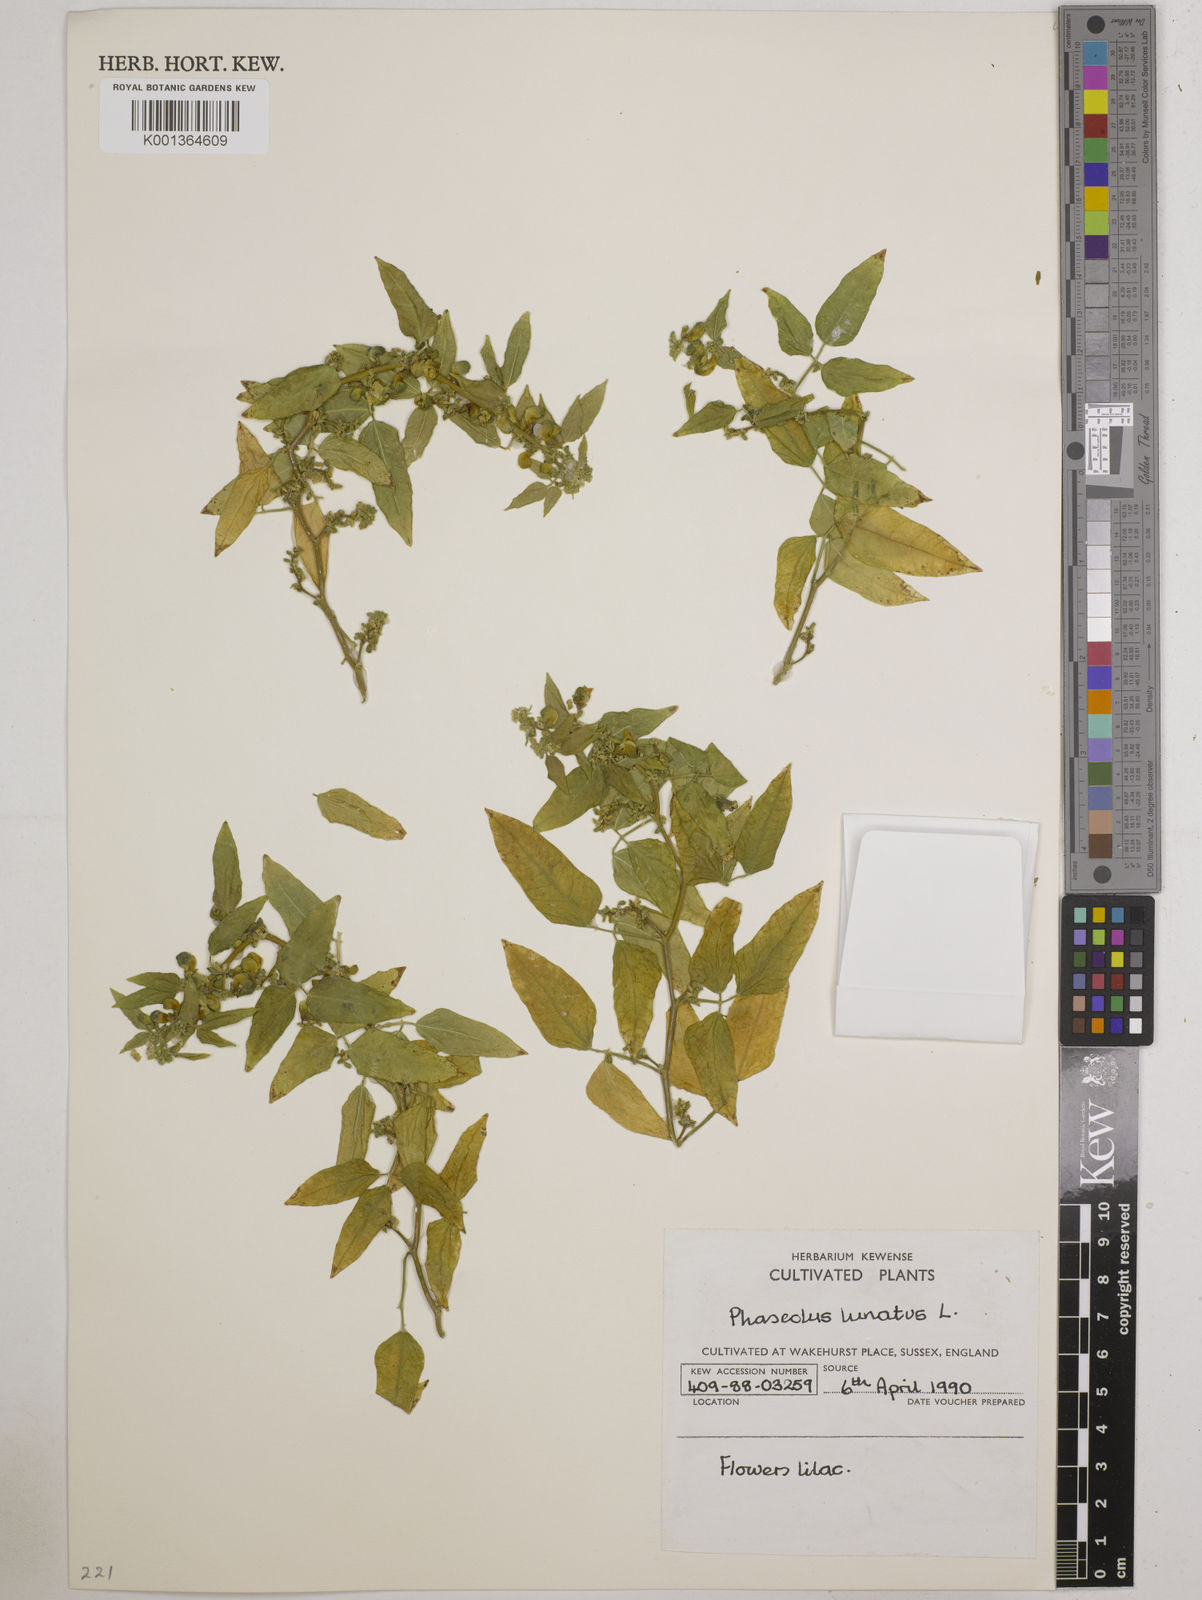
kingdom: Plantae
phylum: Tracheophyta
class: Magnoliopsida
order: Fabales
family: Fabaceae
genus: Phaseolus
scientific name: Phaseolus lunatus
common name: Sieva bean
